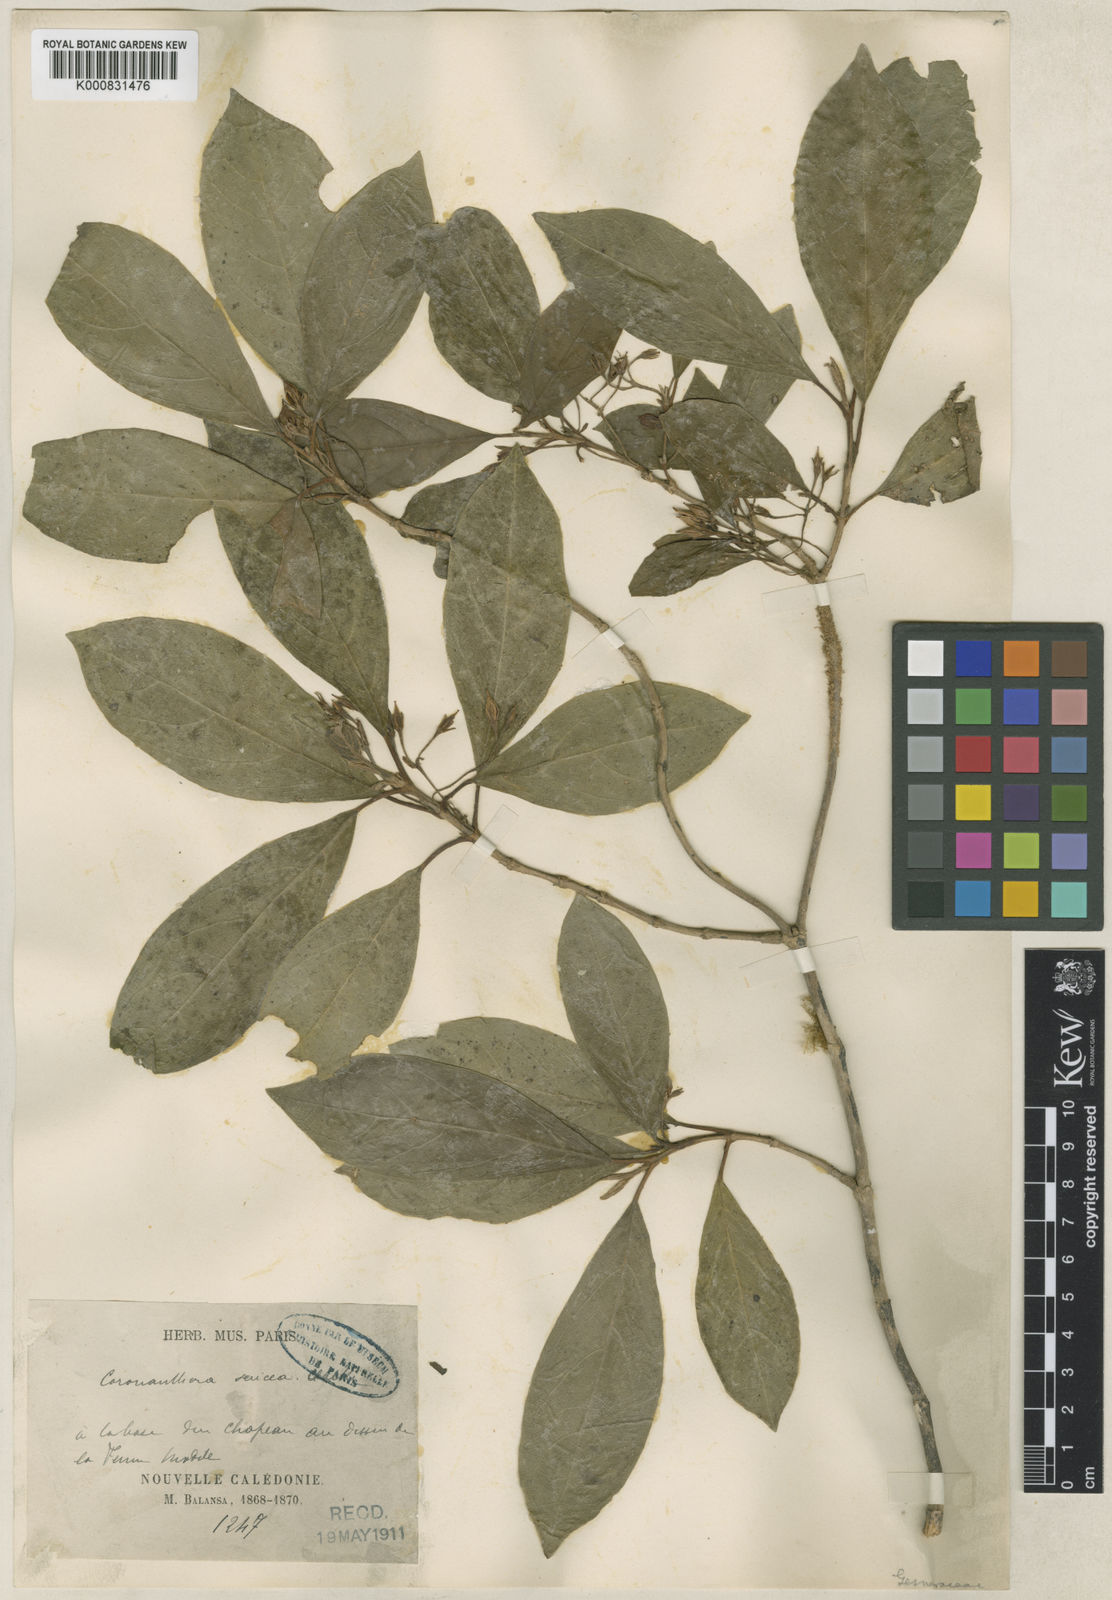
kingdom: Plantae
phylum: Tracheophyta
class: Magnoliopsida
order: Lamiales
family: Gesneriaceae
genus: Coronanthera
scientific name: Coronanthera sericea
